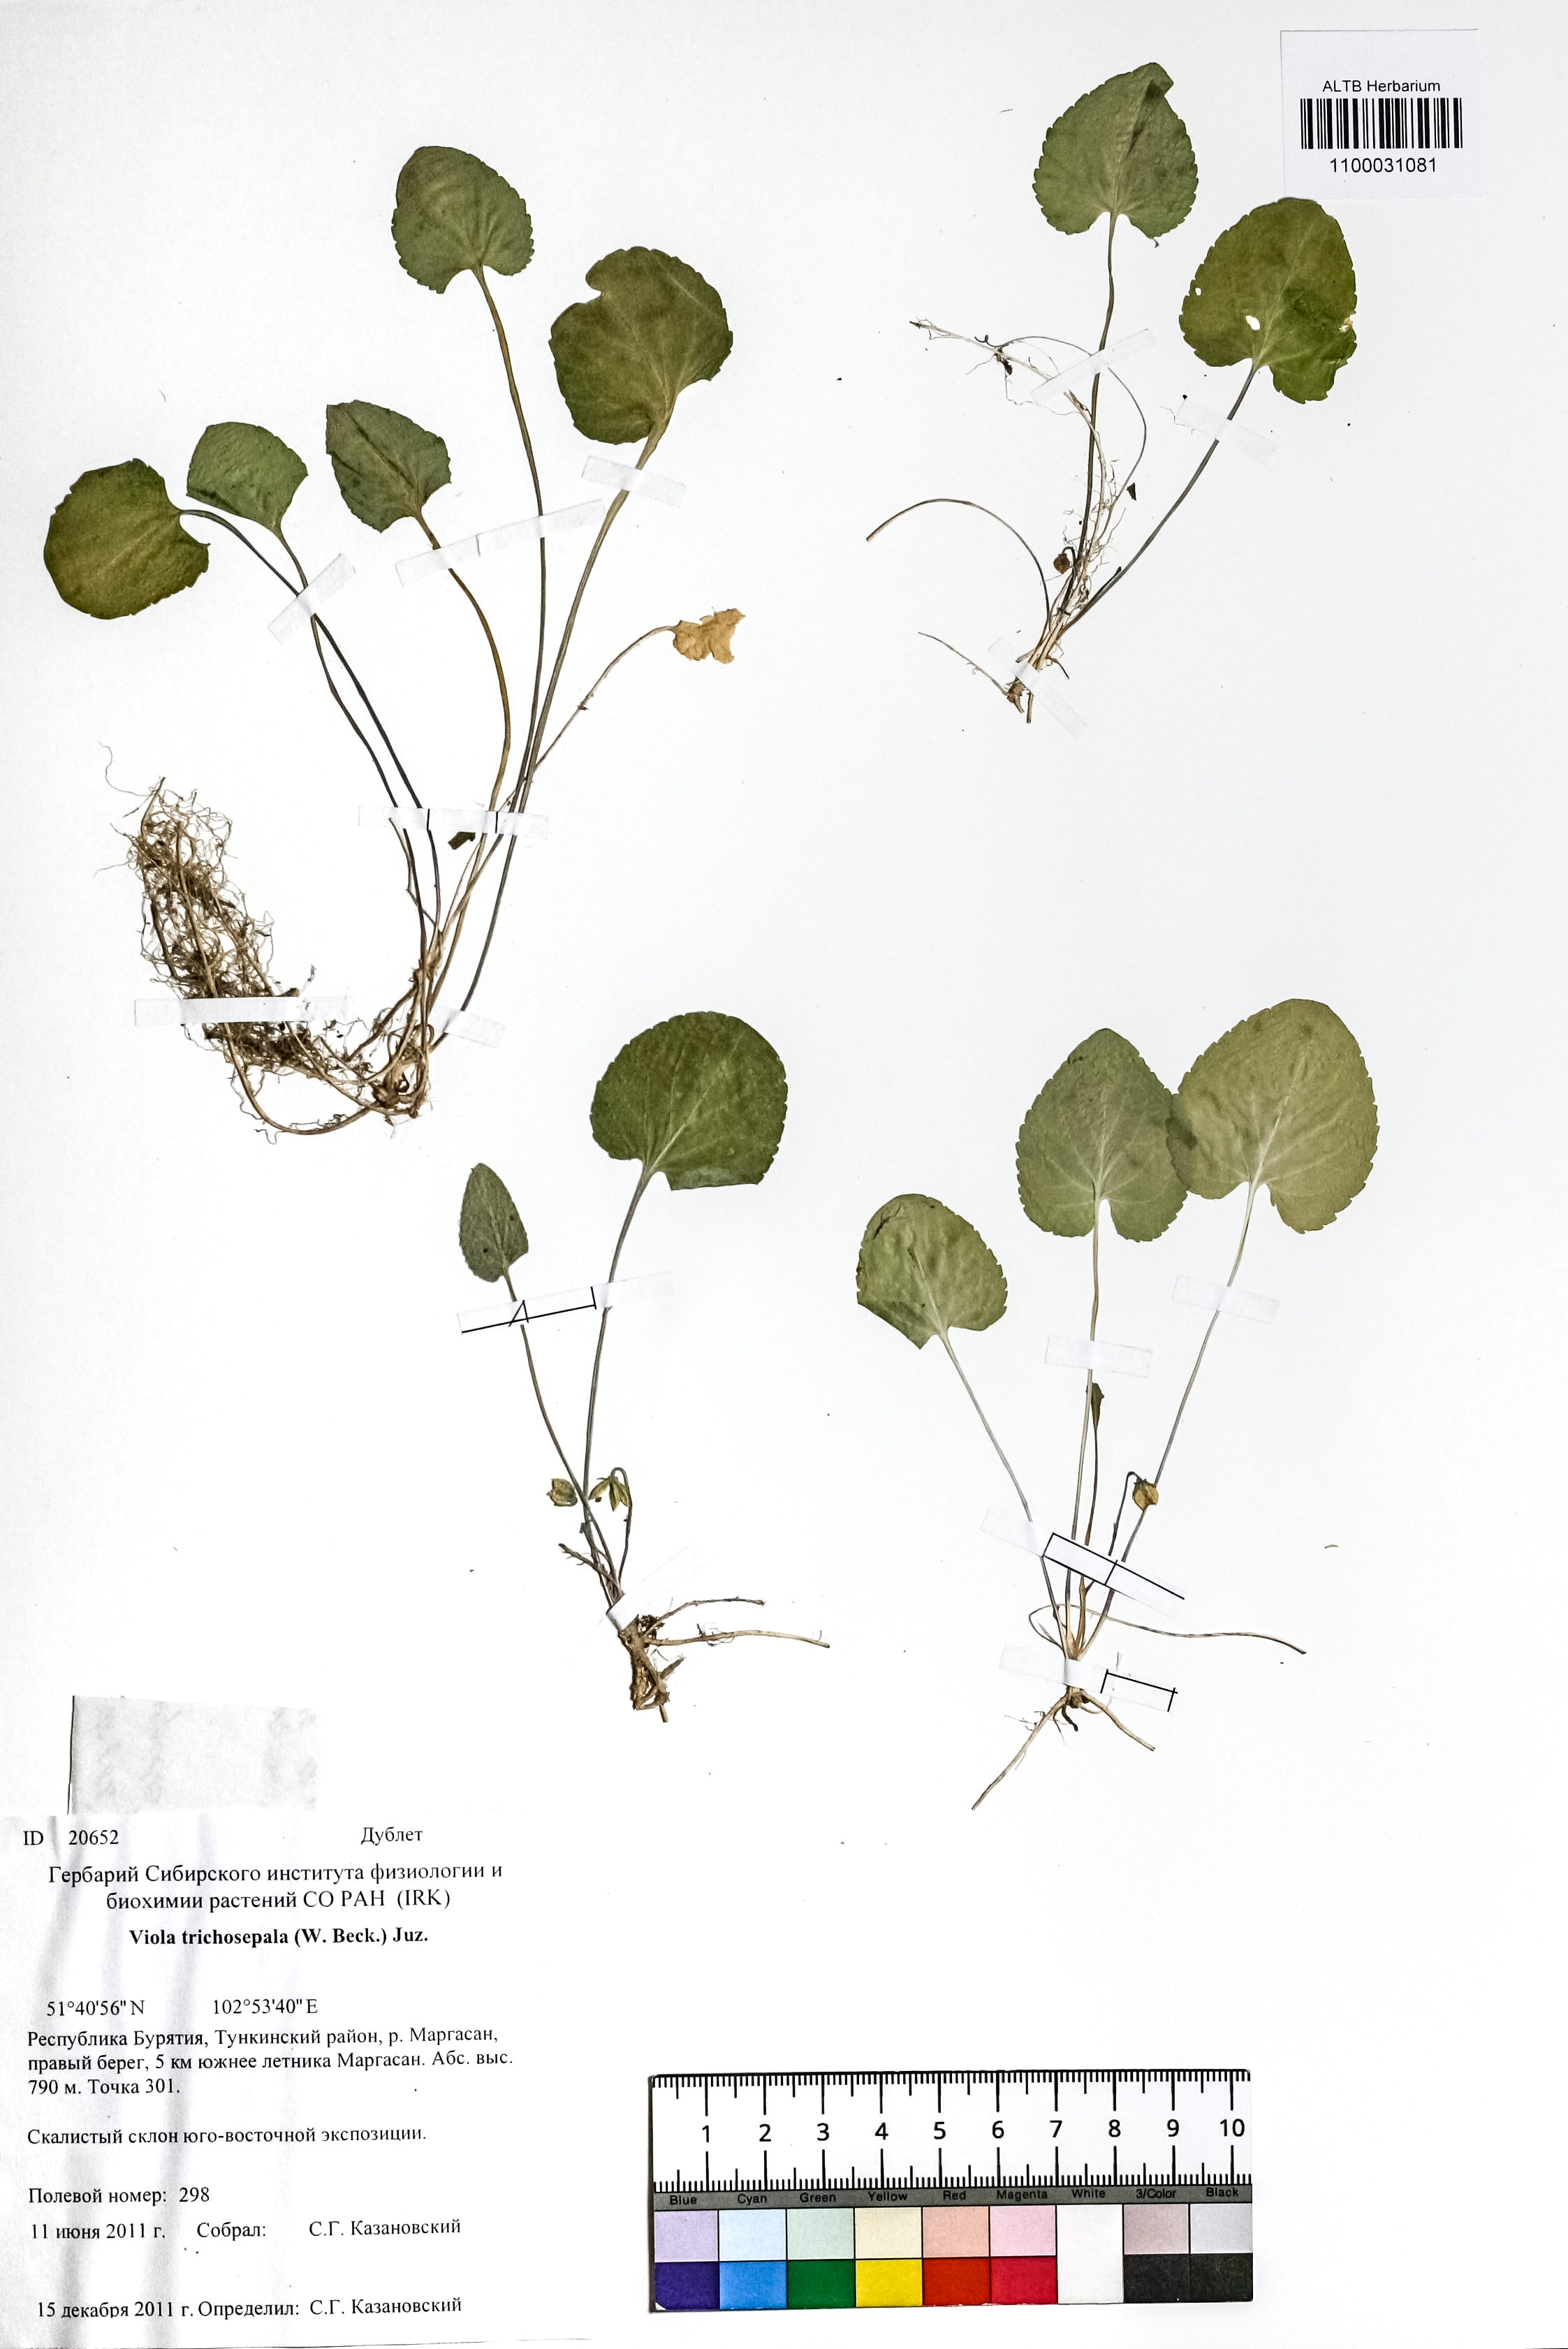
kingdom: Plantae
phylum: Tracheophyta
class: Magnoliopsida
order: Malpighiales
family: Violaceae
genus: Viola
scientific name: Viola tenuicornis
